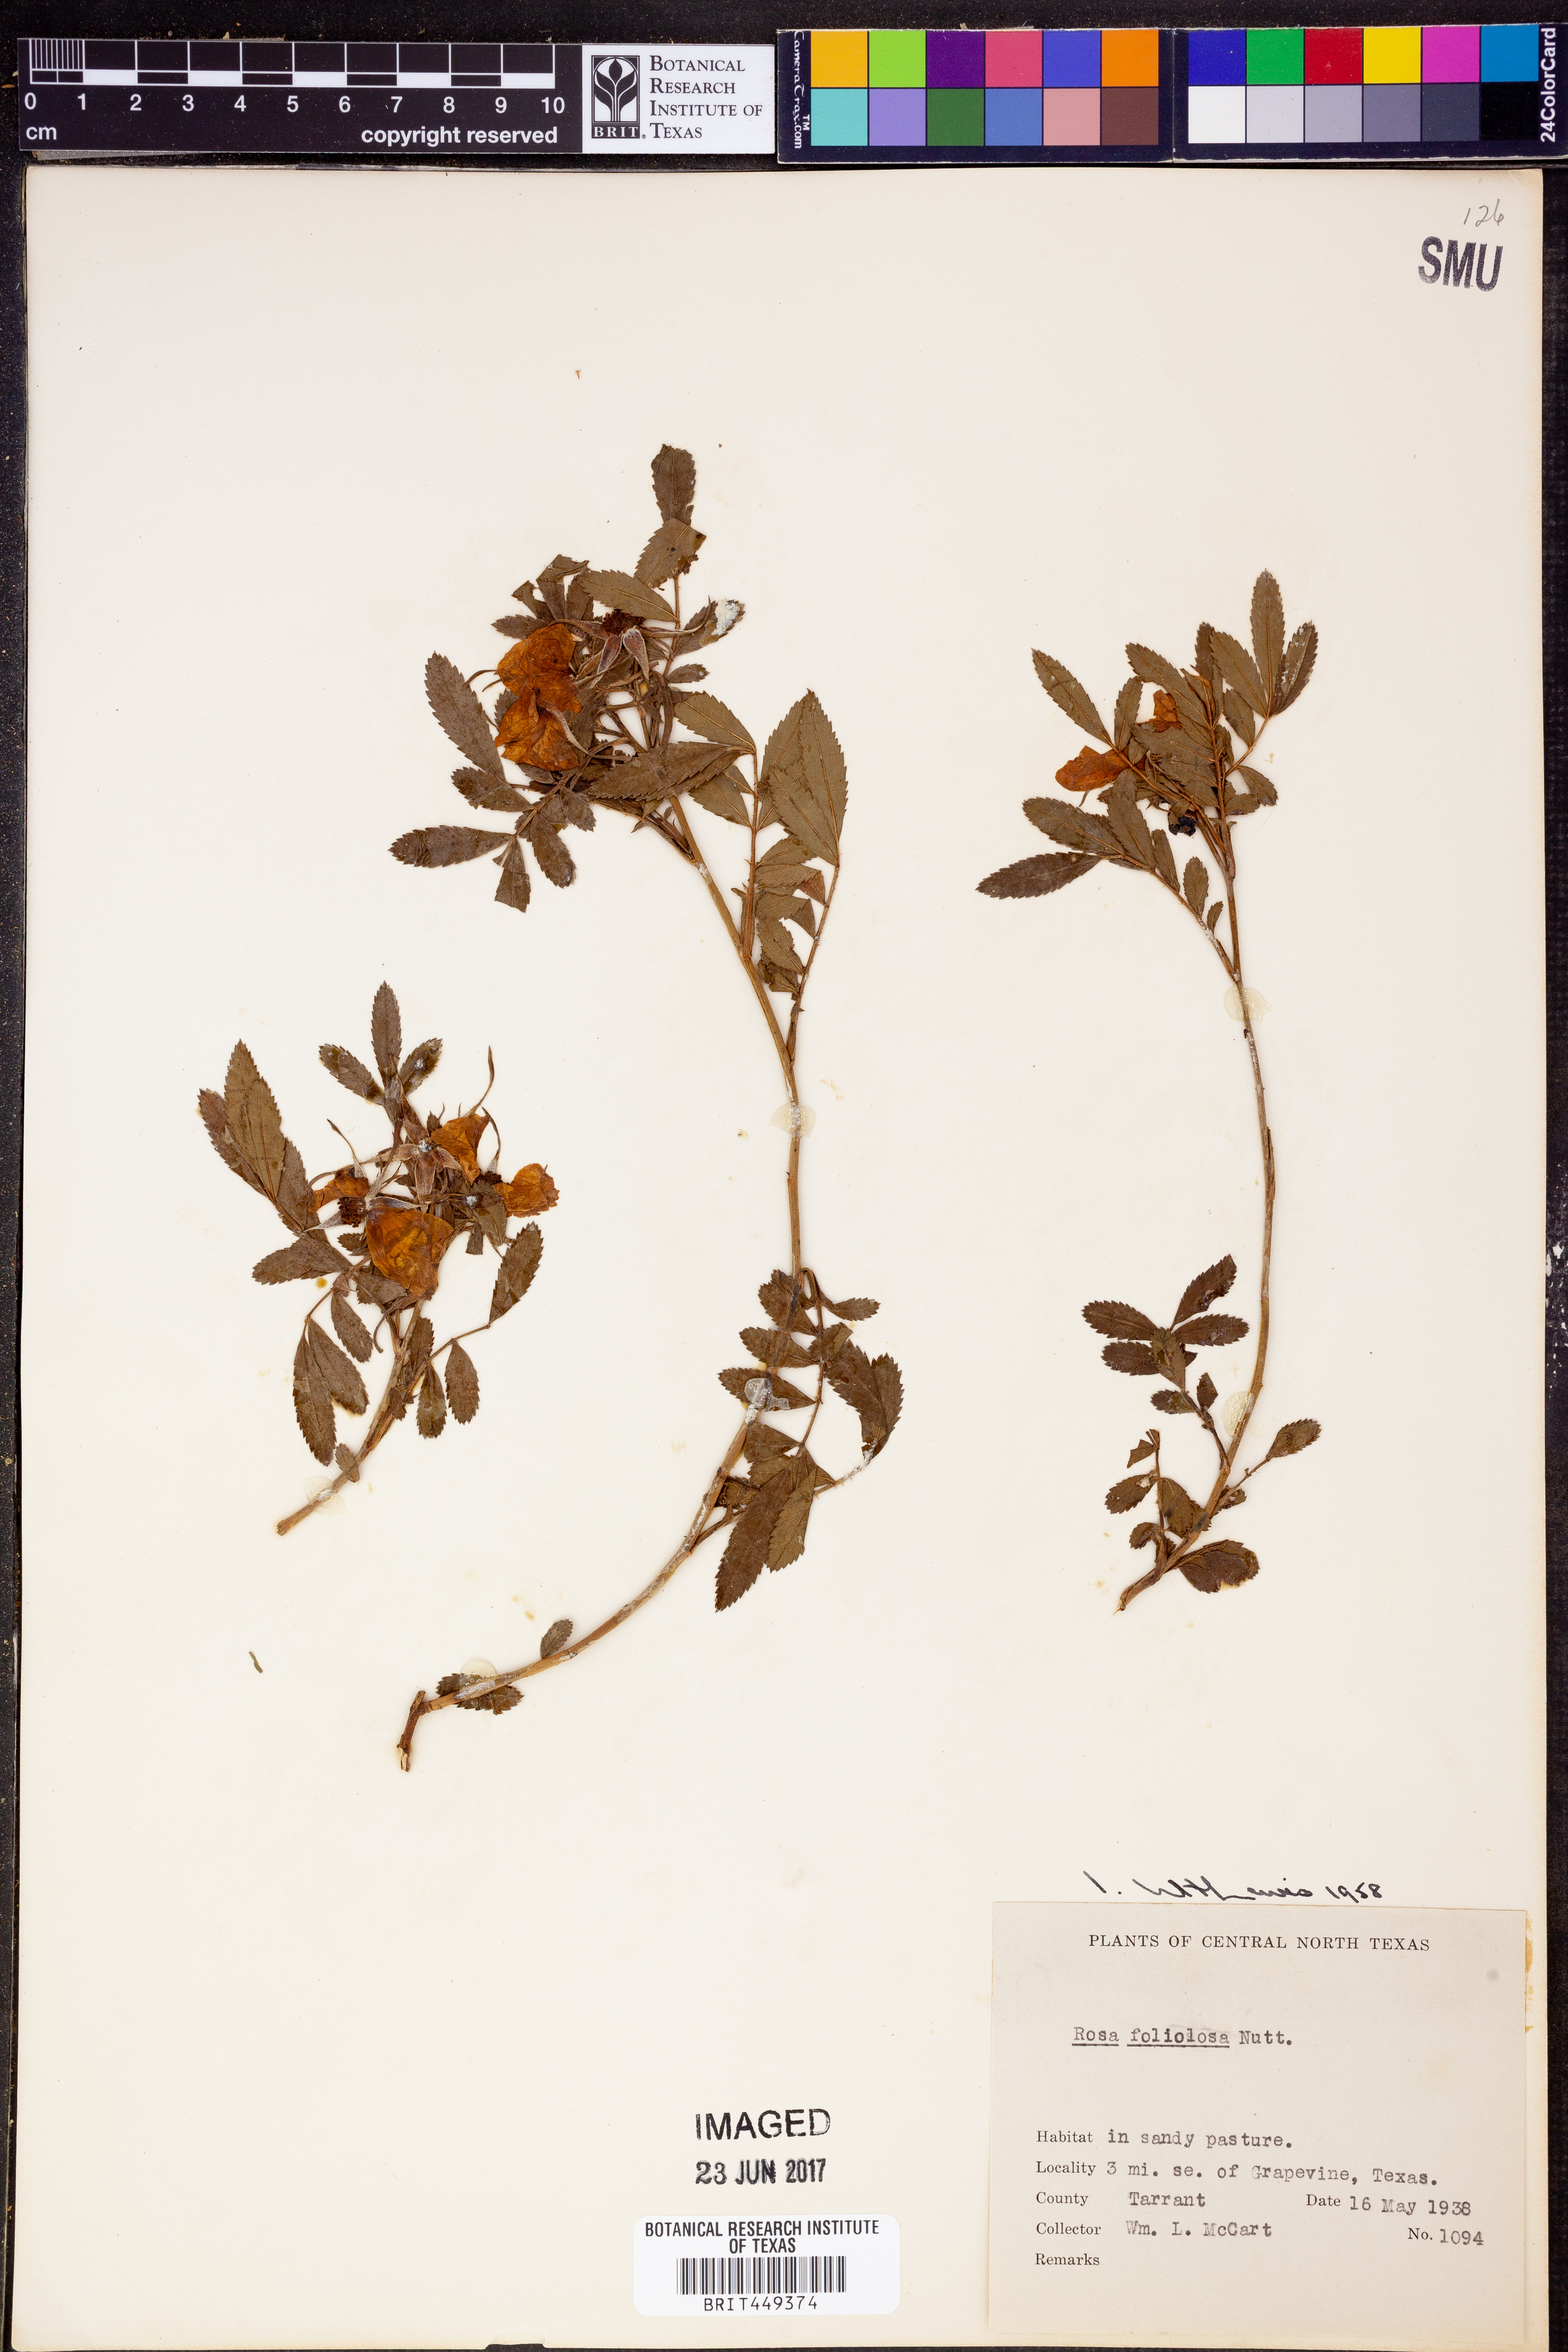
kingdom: Plantae
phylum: Tracheophyta
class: Magnoliopsida
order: Rosales
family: Rosaceae
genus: Rosa
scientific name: Rosa foliolosa
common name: White prairie rose
